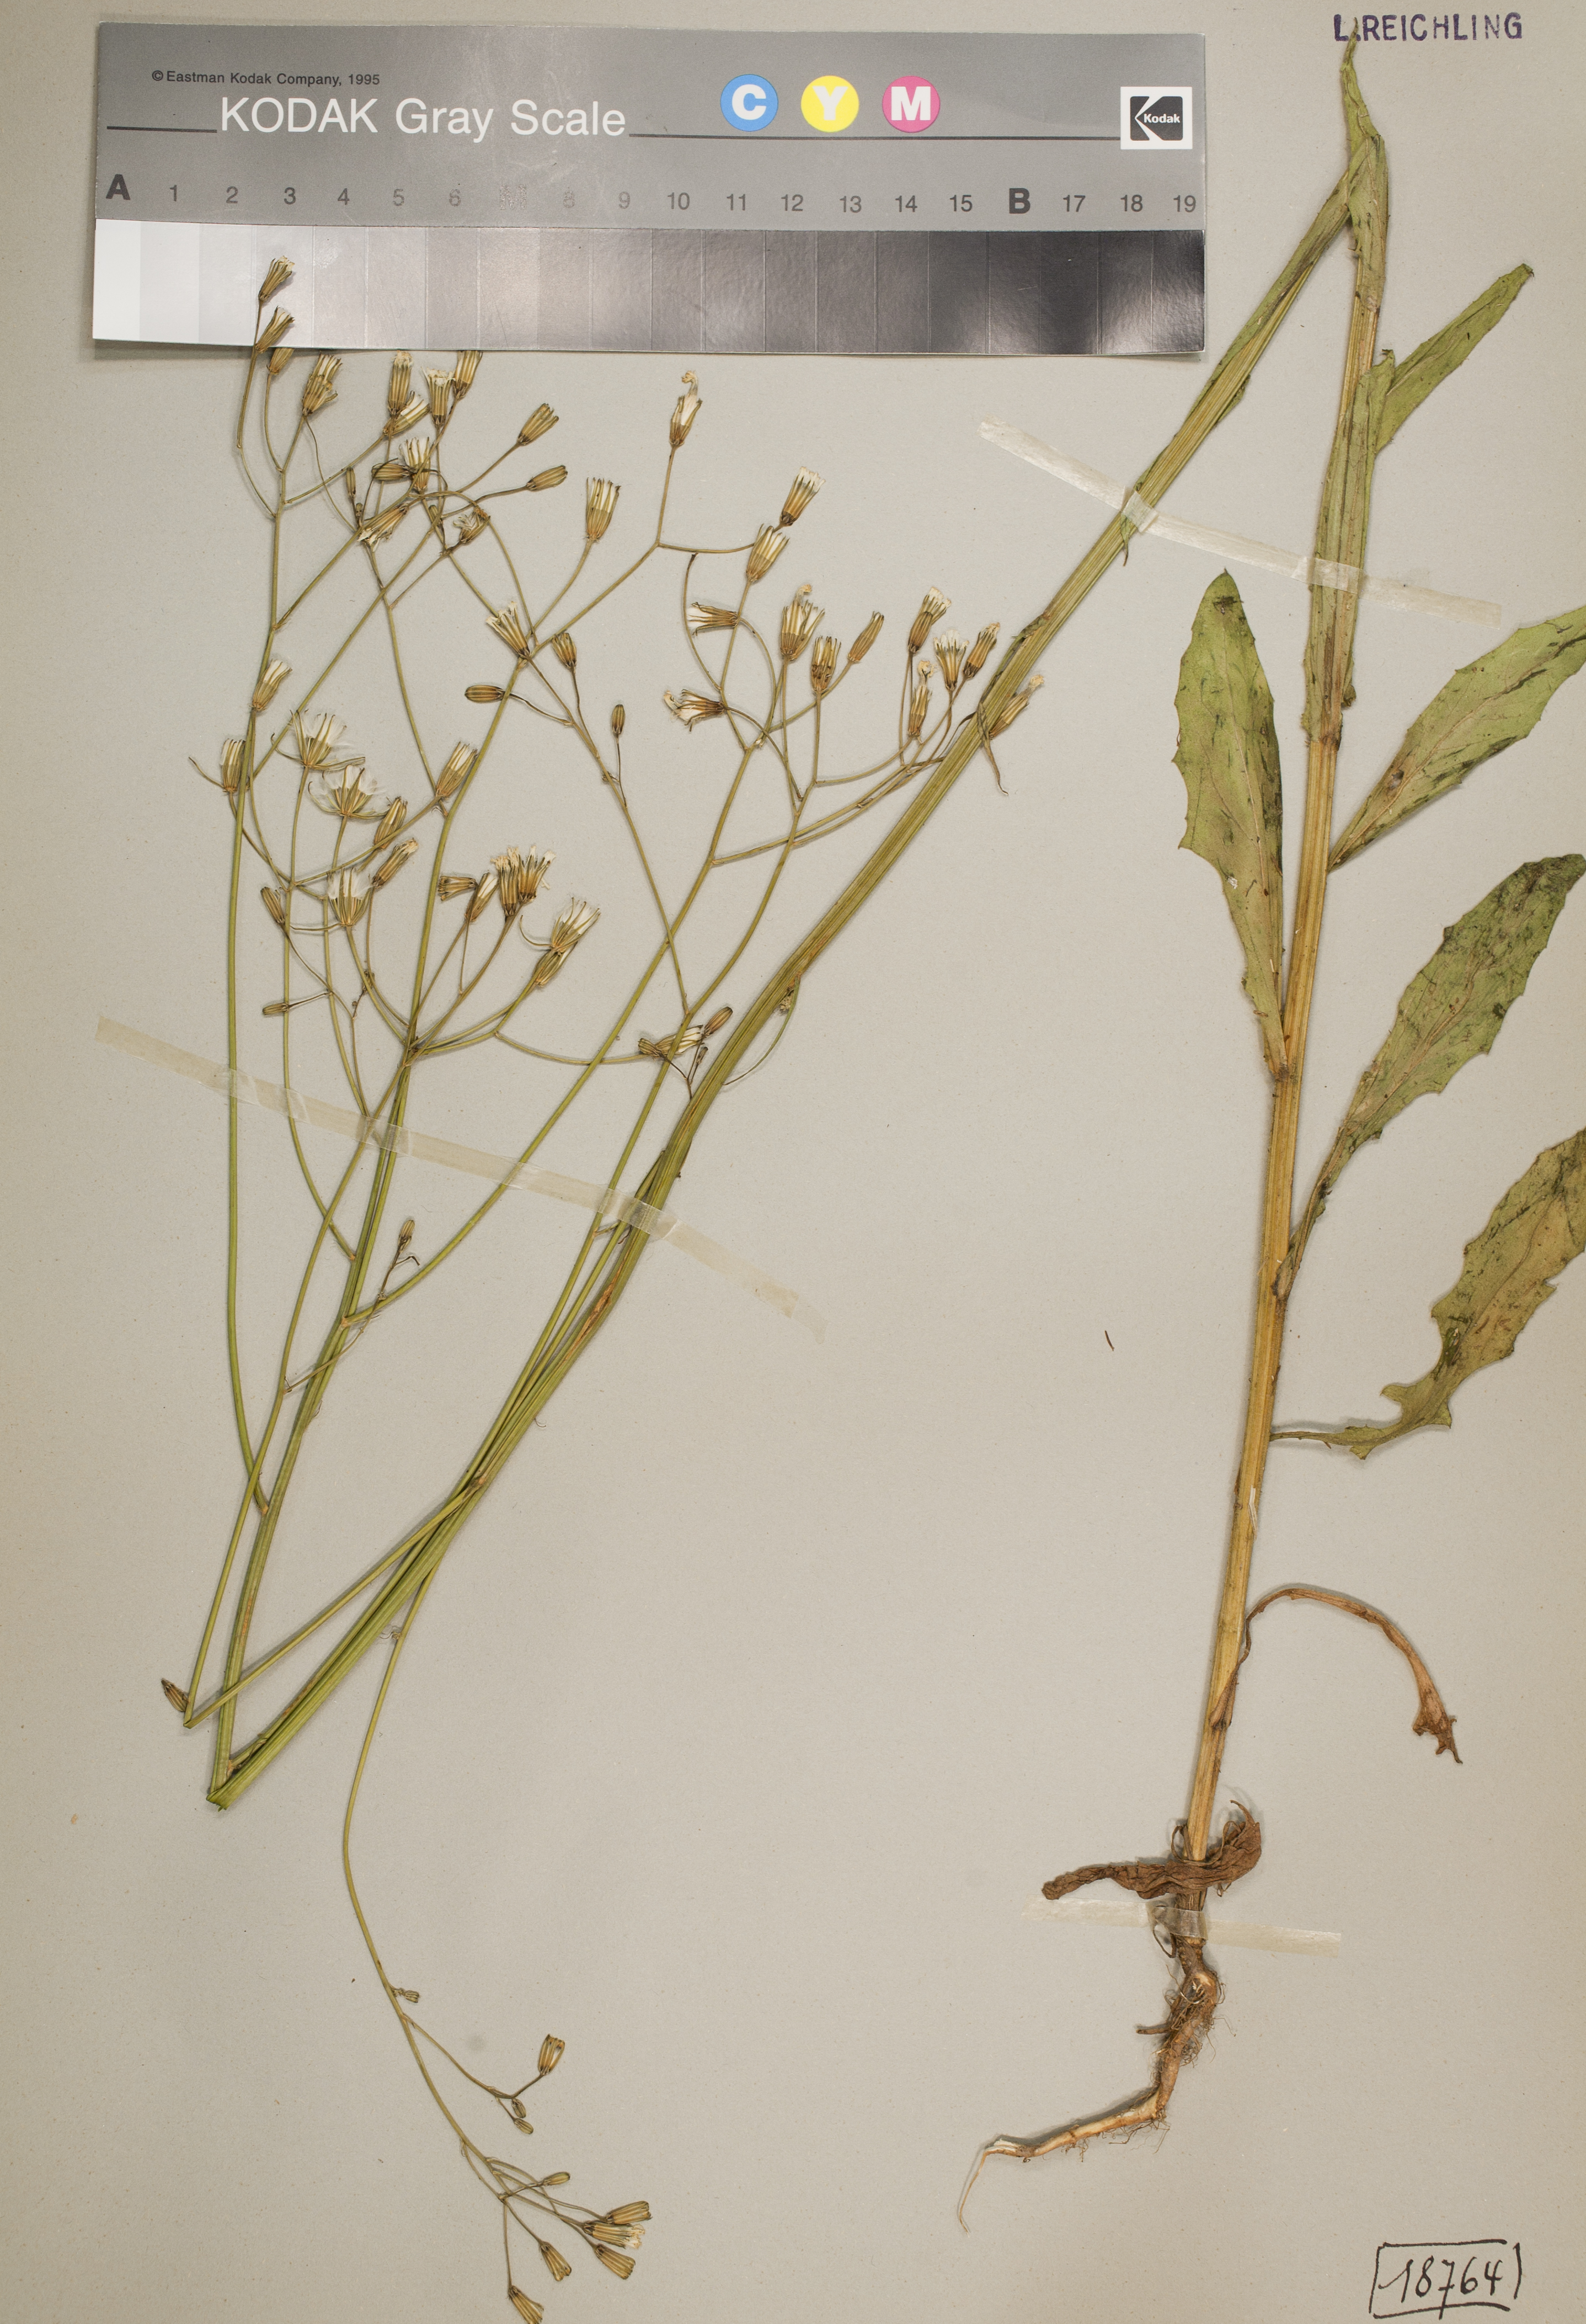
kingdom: Plantae
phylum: Tracheophyta
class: Magnoliopsida
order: Asterales
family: Asteraceae
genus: Crepis
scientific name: Crepis pulchra
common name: Hawk's-beard
